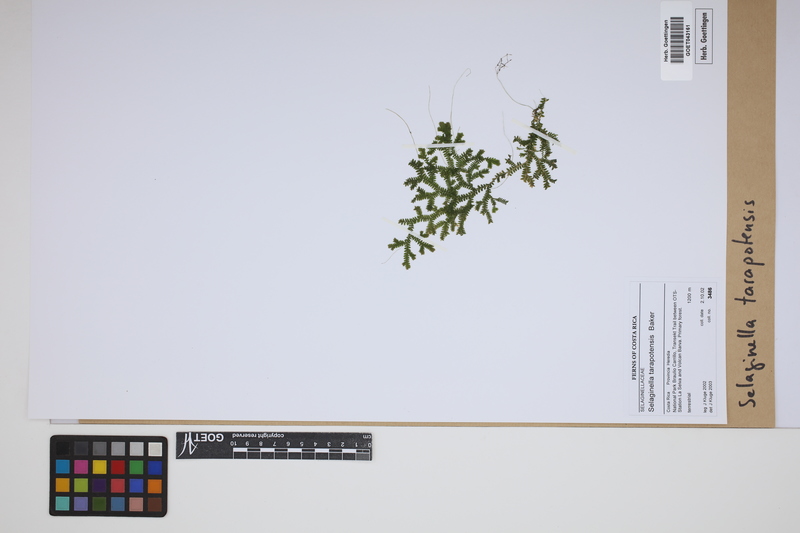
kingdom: Plantae
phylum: Tracheophyta
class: Lycopodiopsida
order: Selaginellales
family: Selaginellaceae
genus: Selaginella
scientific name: Selaginella flexuosa
